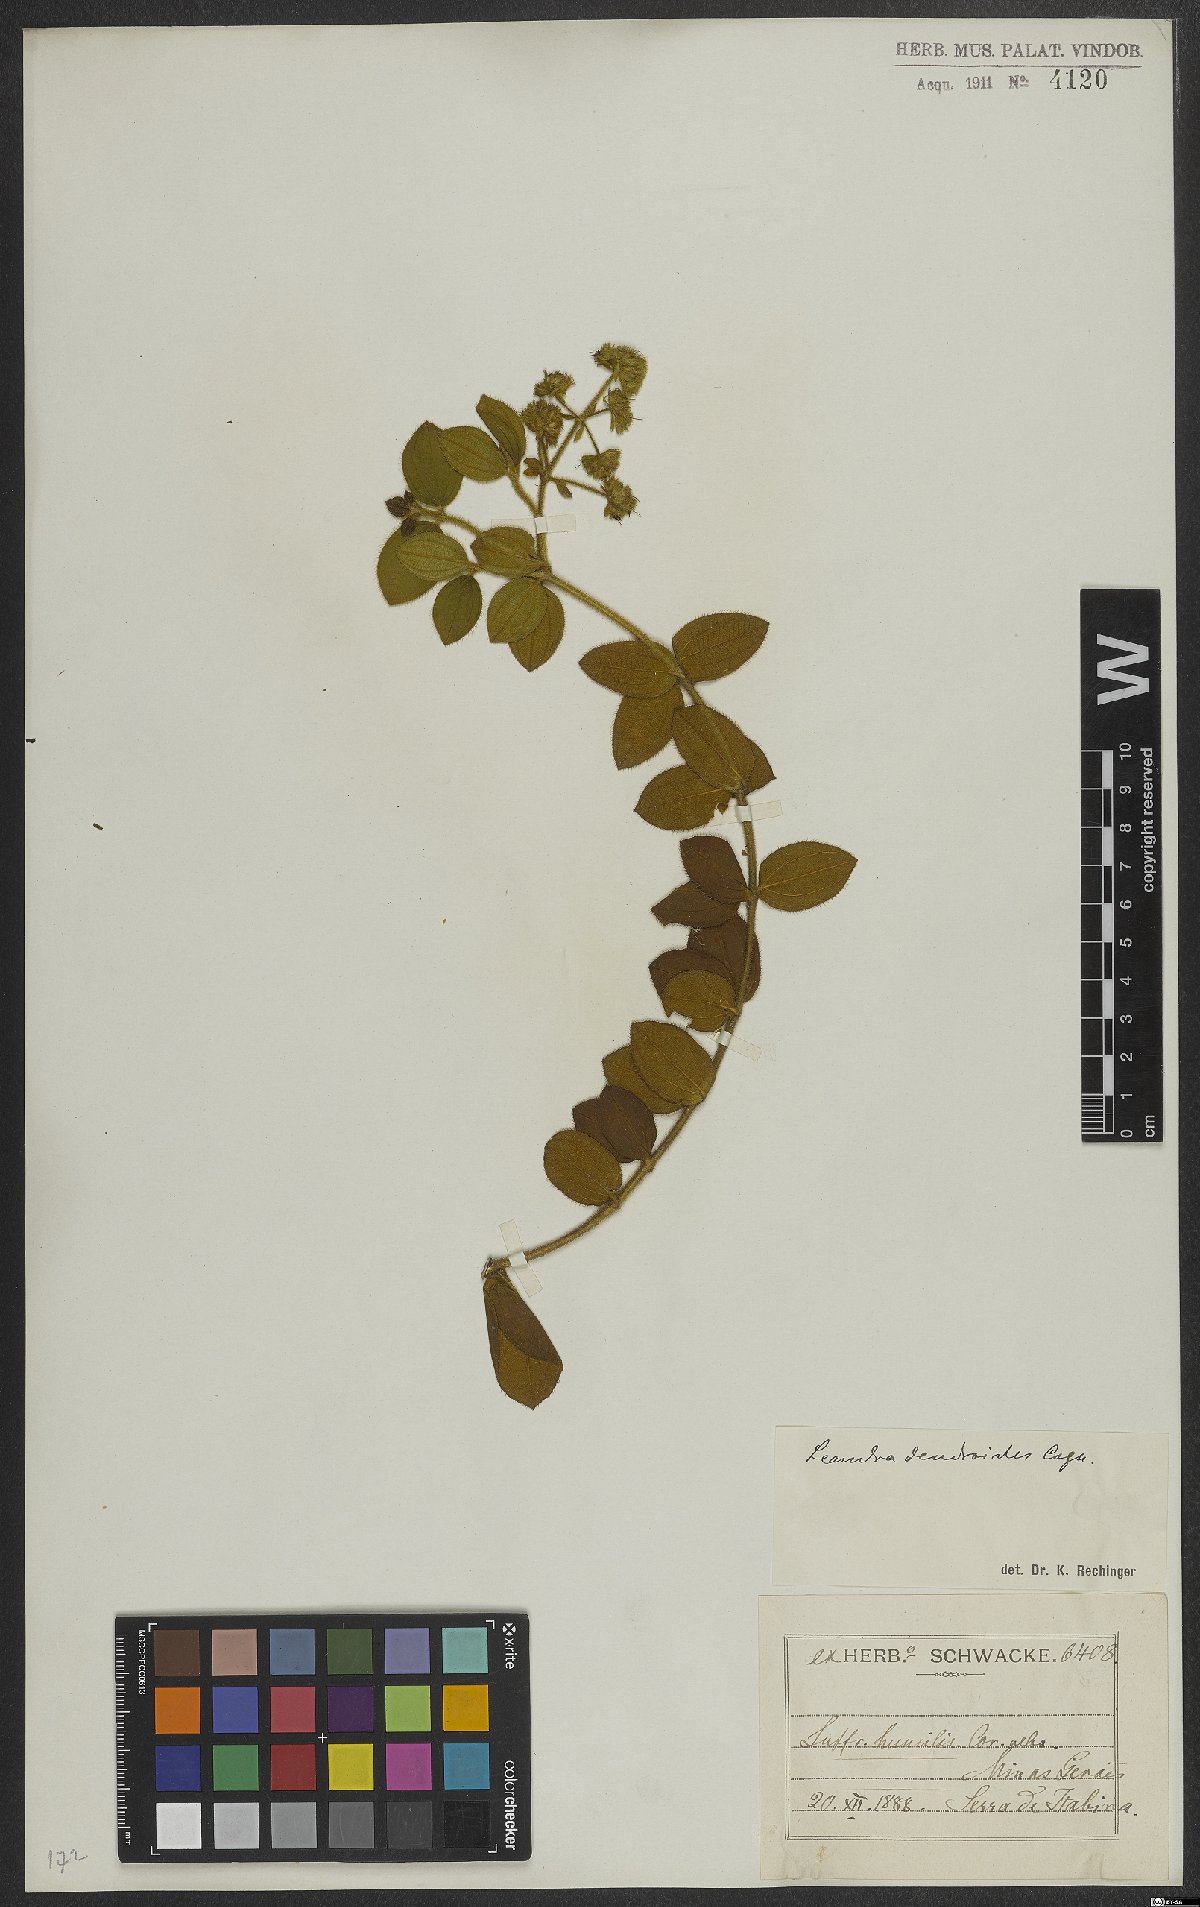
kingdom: Plantae
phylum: Tracheophyta
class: Magnoliopsida
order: Myrtales
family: Melastomataceae
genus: Miconia
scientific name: Miconia dendroides
